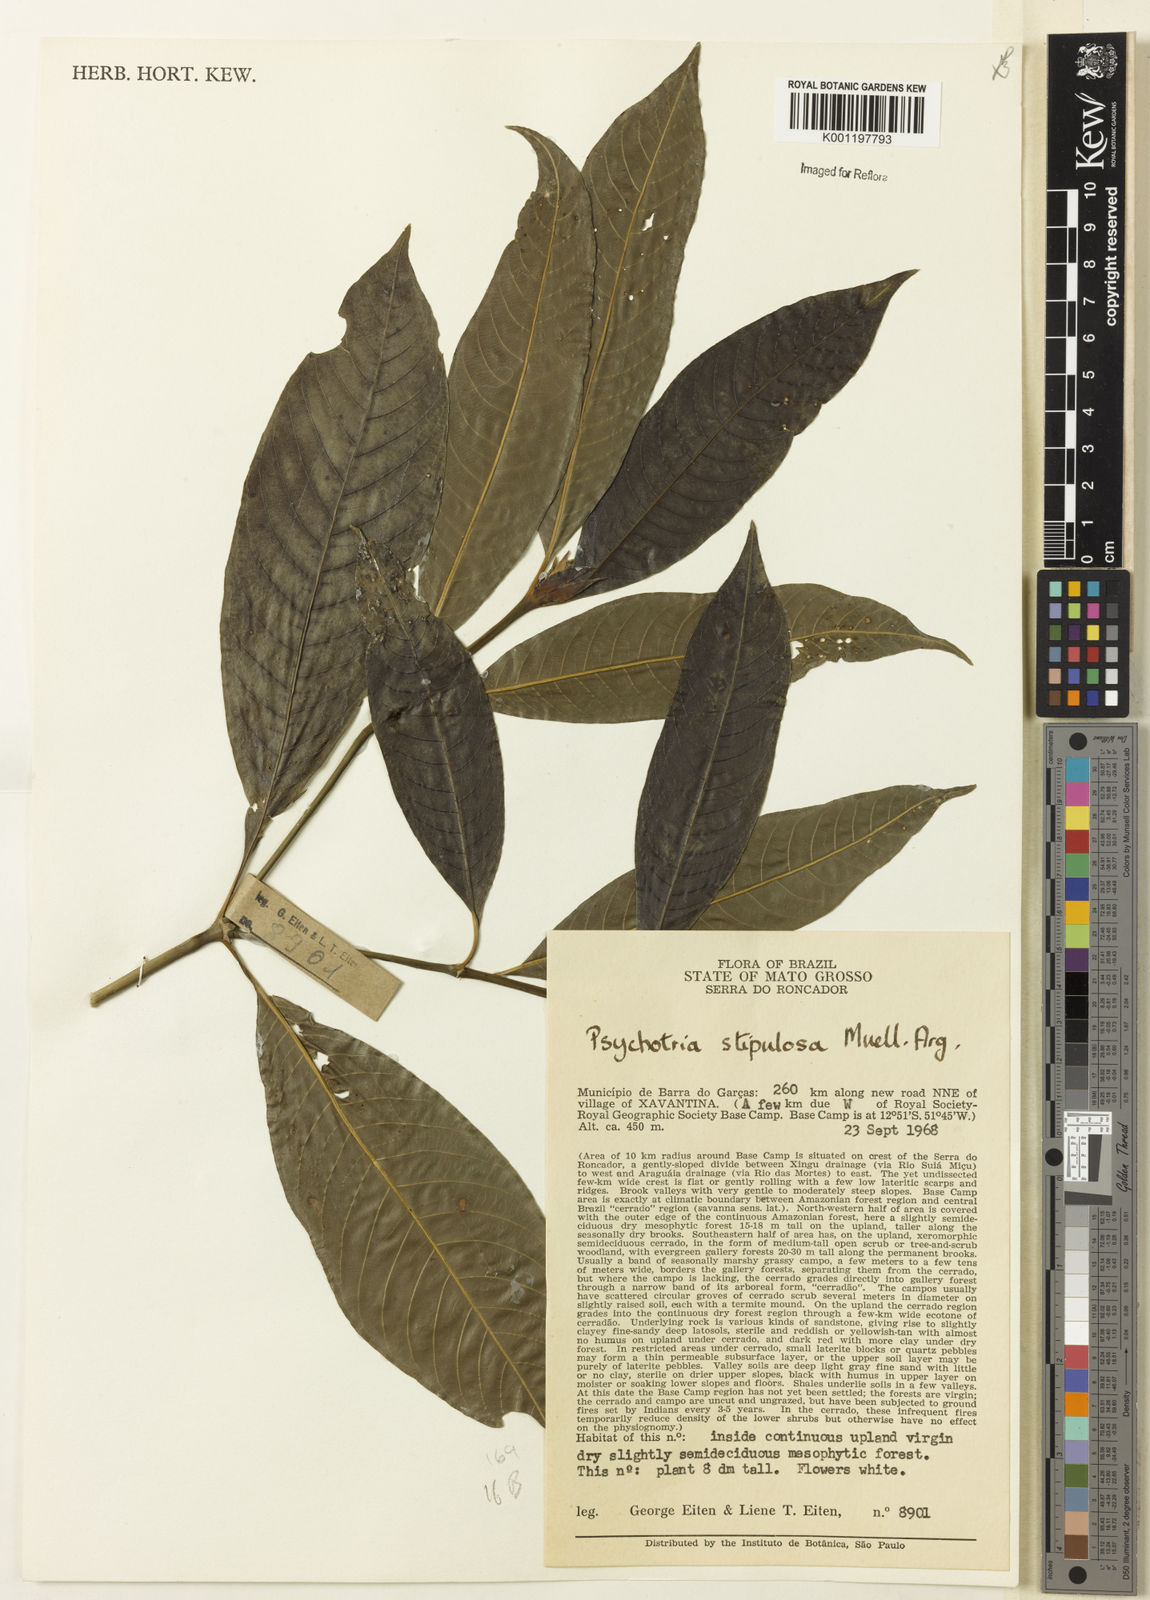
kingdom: Plantae
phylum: Tracheophyta
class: Magnoliopsida
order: Gentianales
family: Rubiaceae
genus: Psychotria
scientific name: Psychotria
